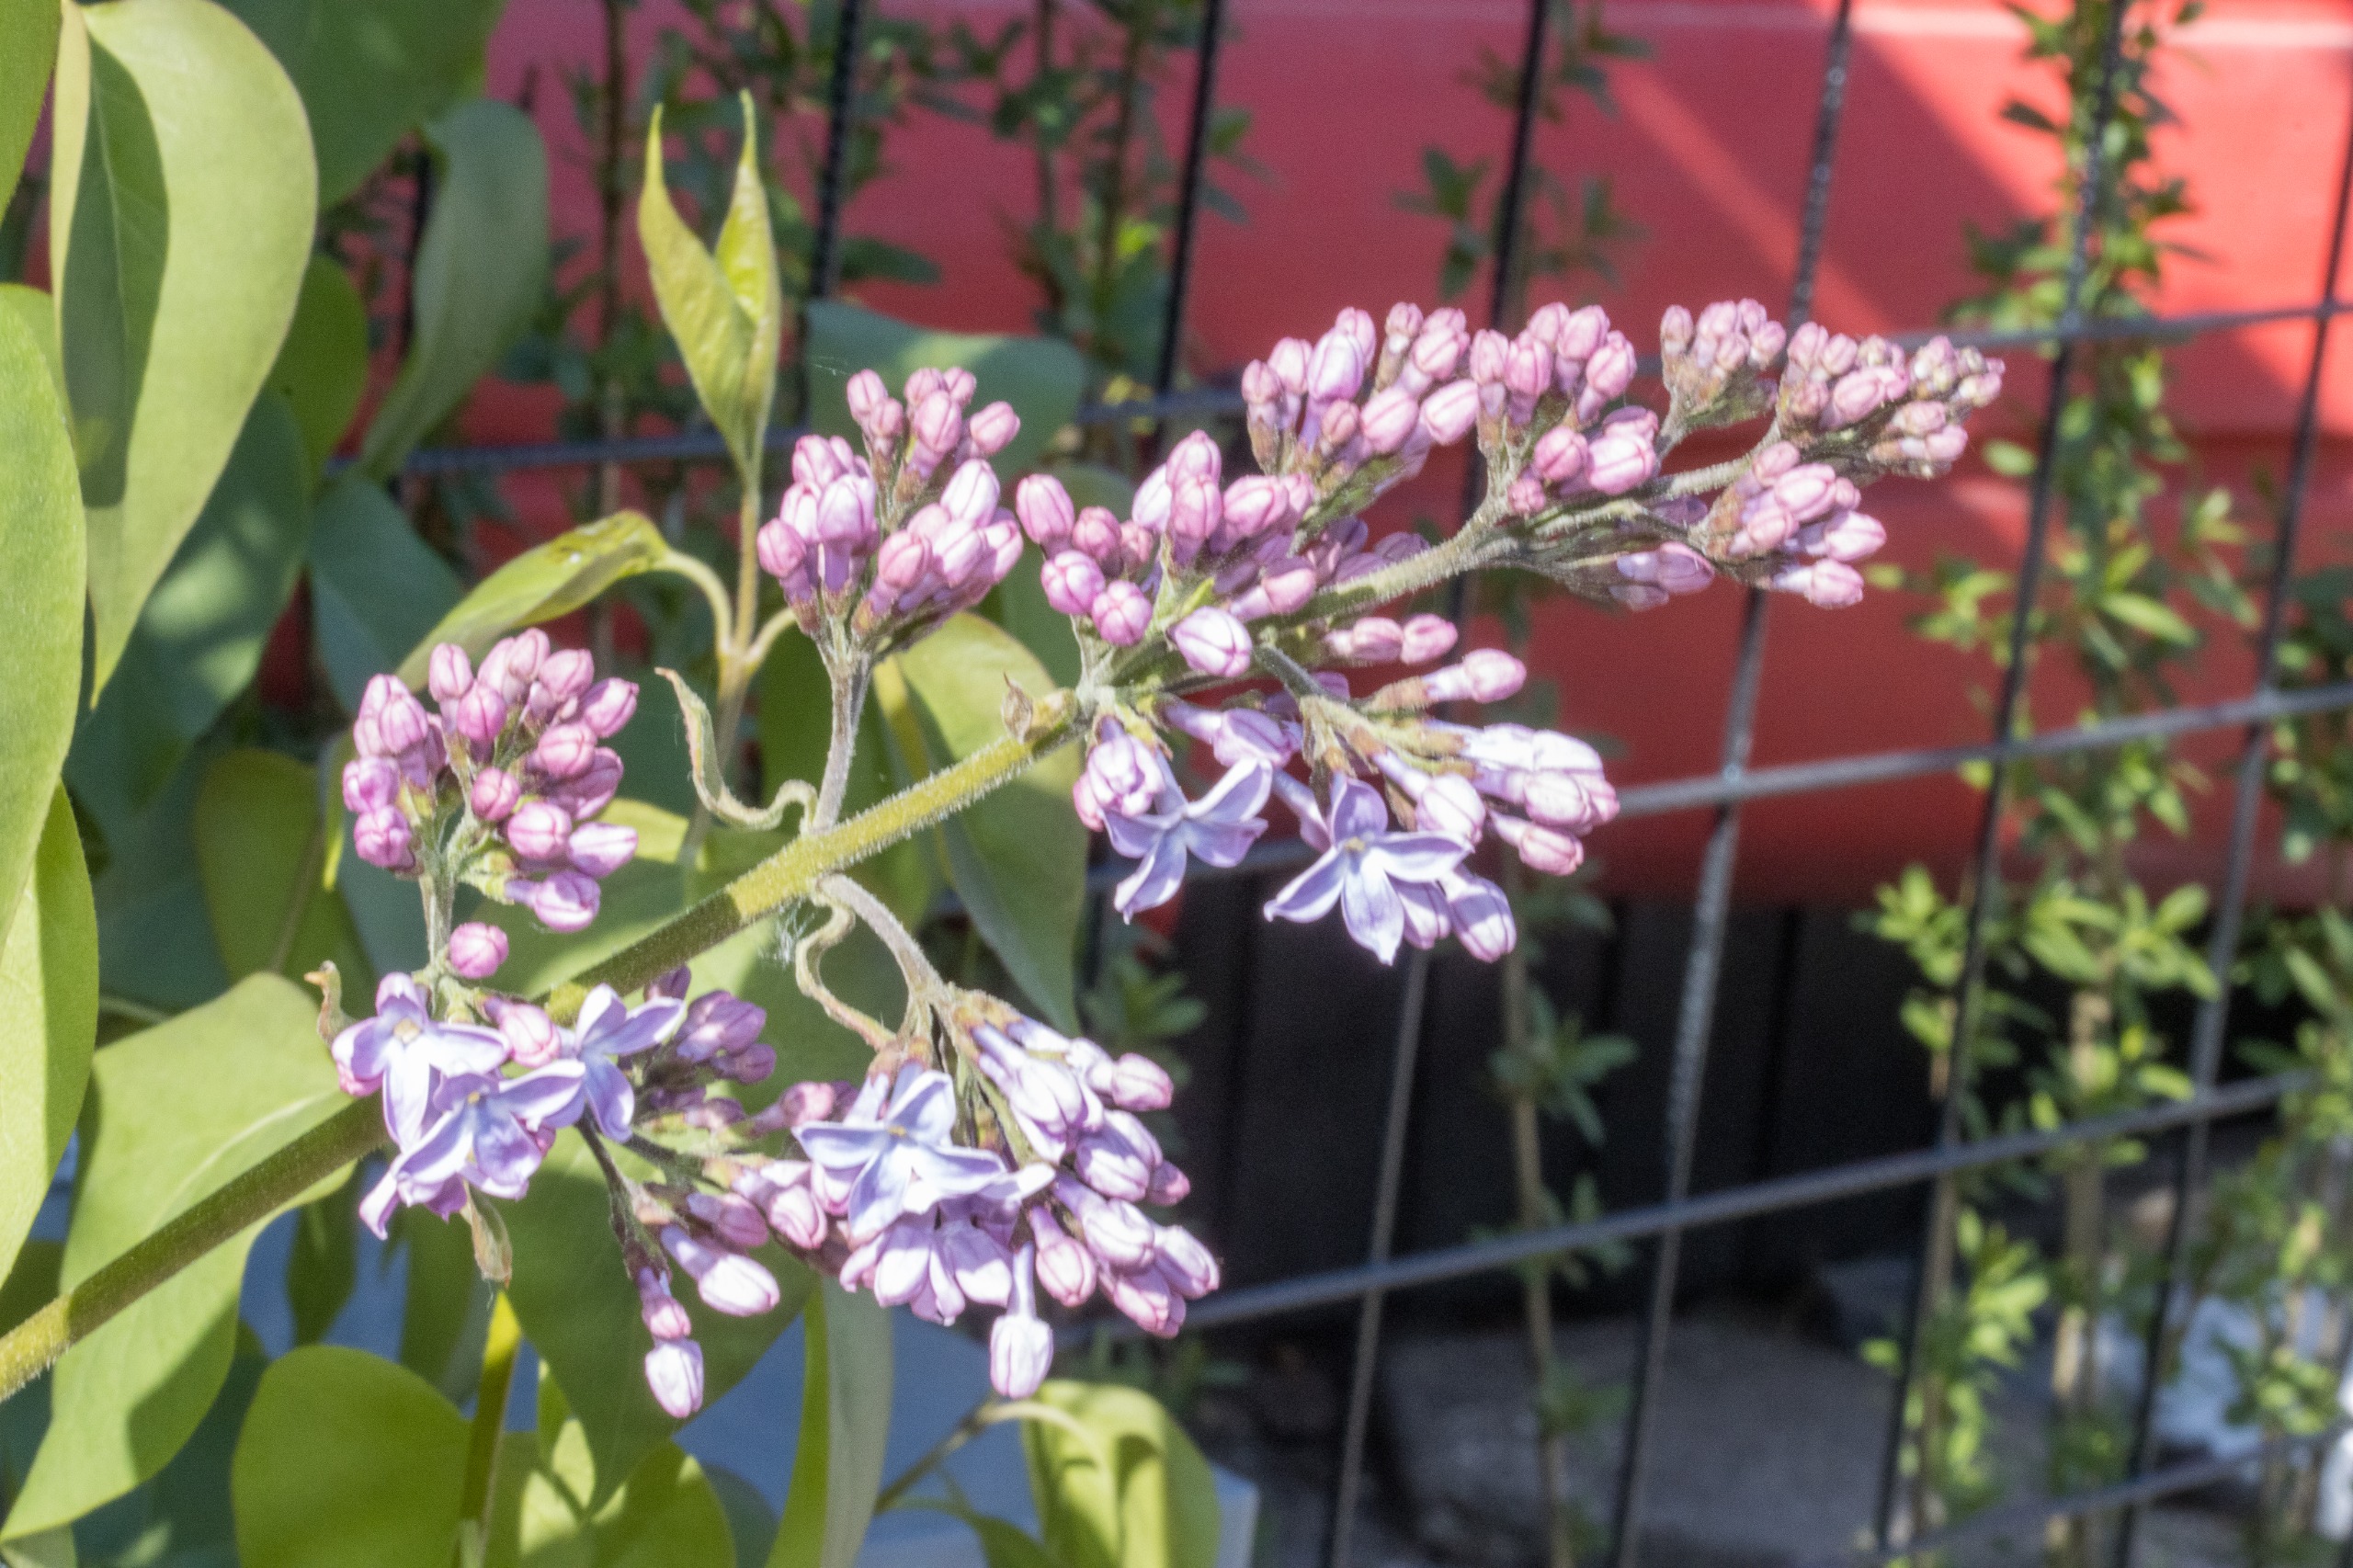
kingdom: Plantae
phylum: Tracheophyta
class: Magnoliopsida
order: Lamiales
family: Oleaceae
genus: Syringa
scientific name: Syringa vulgaris
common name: Syren
